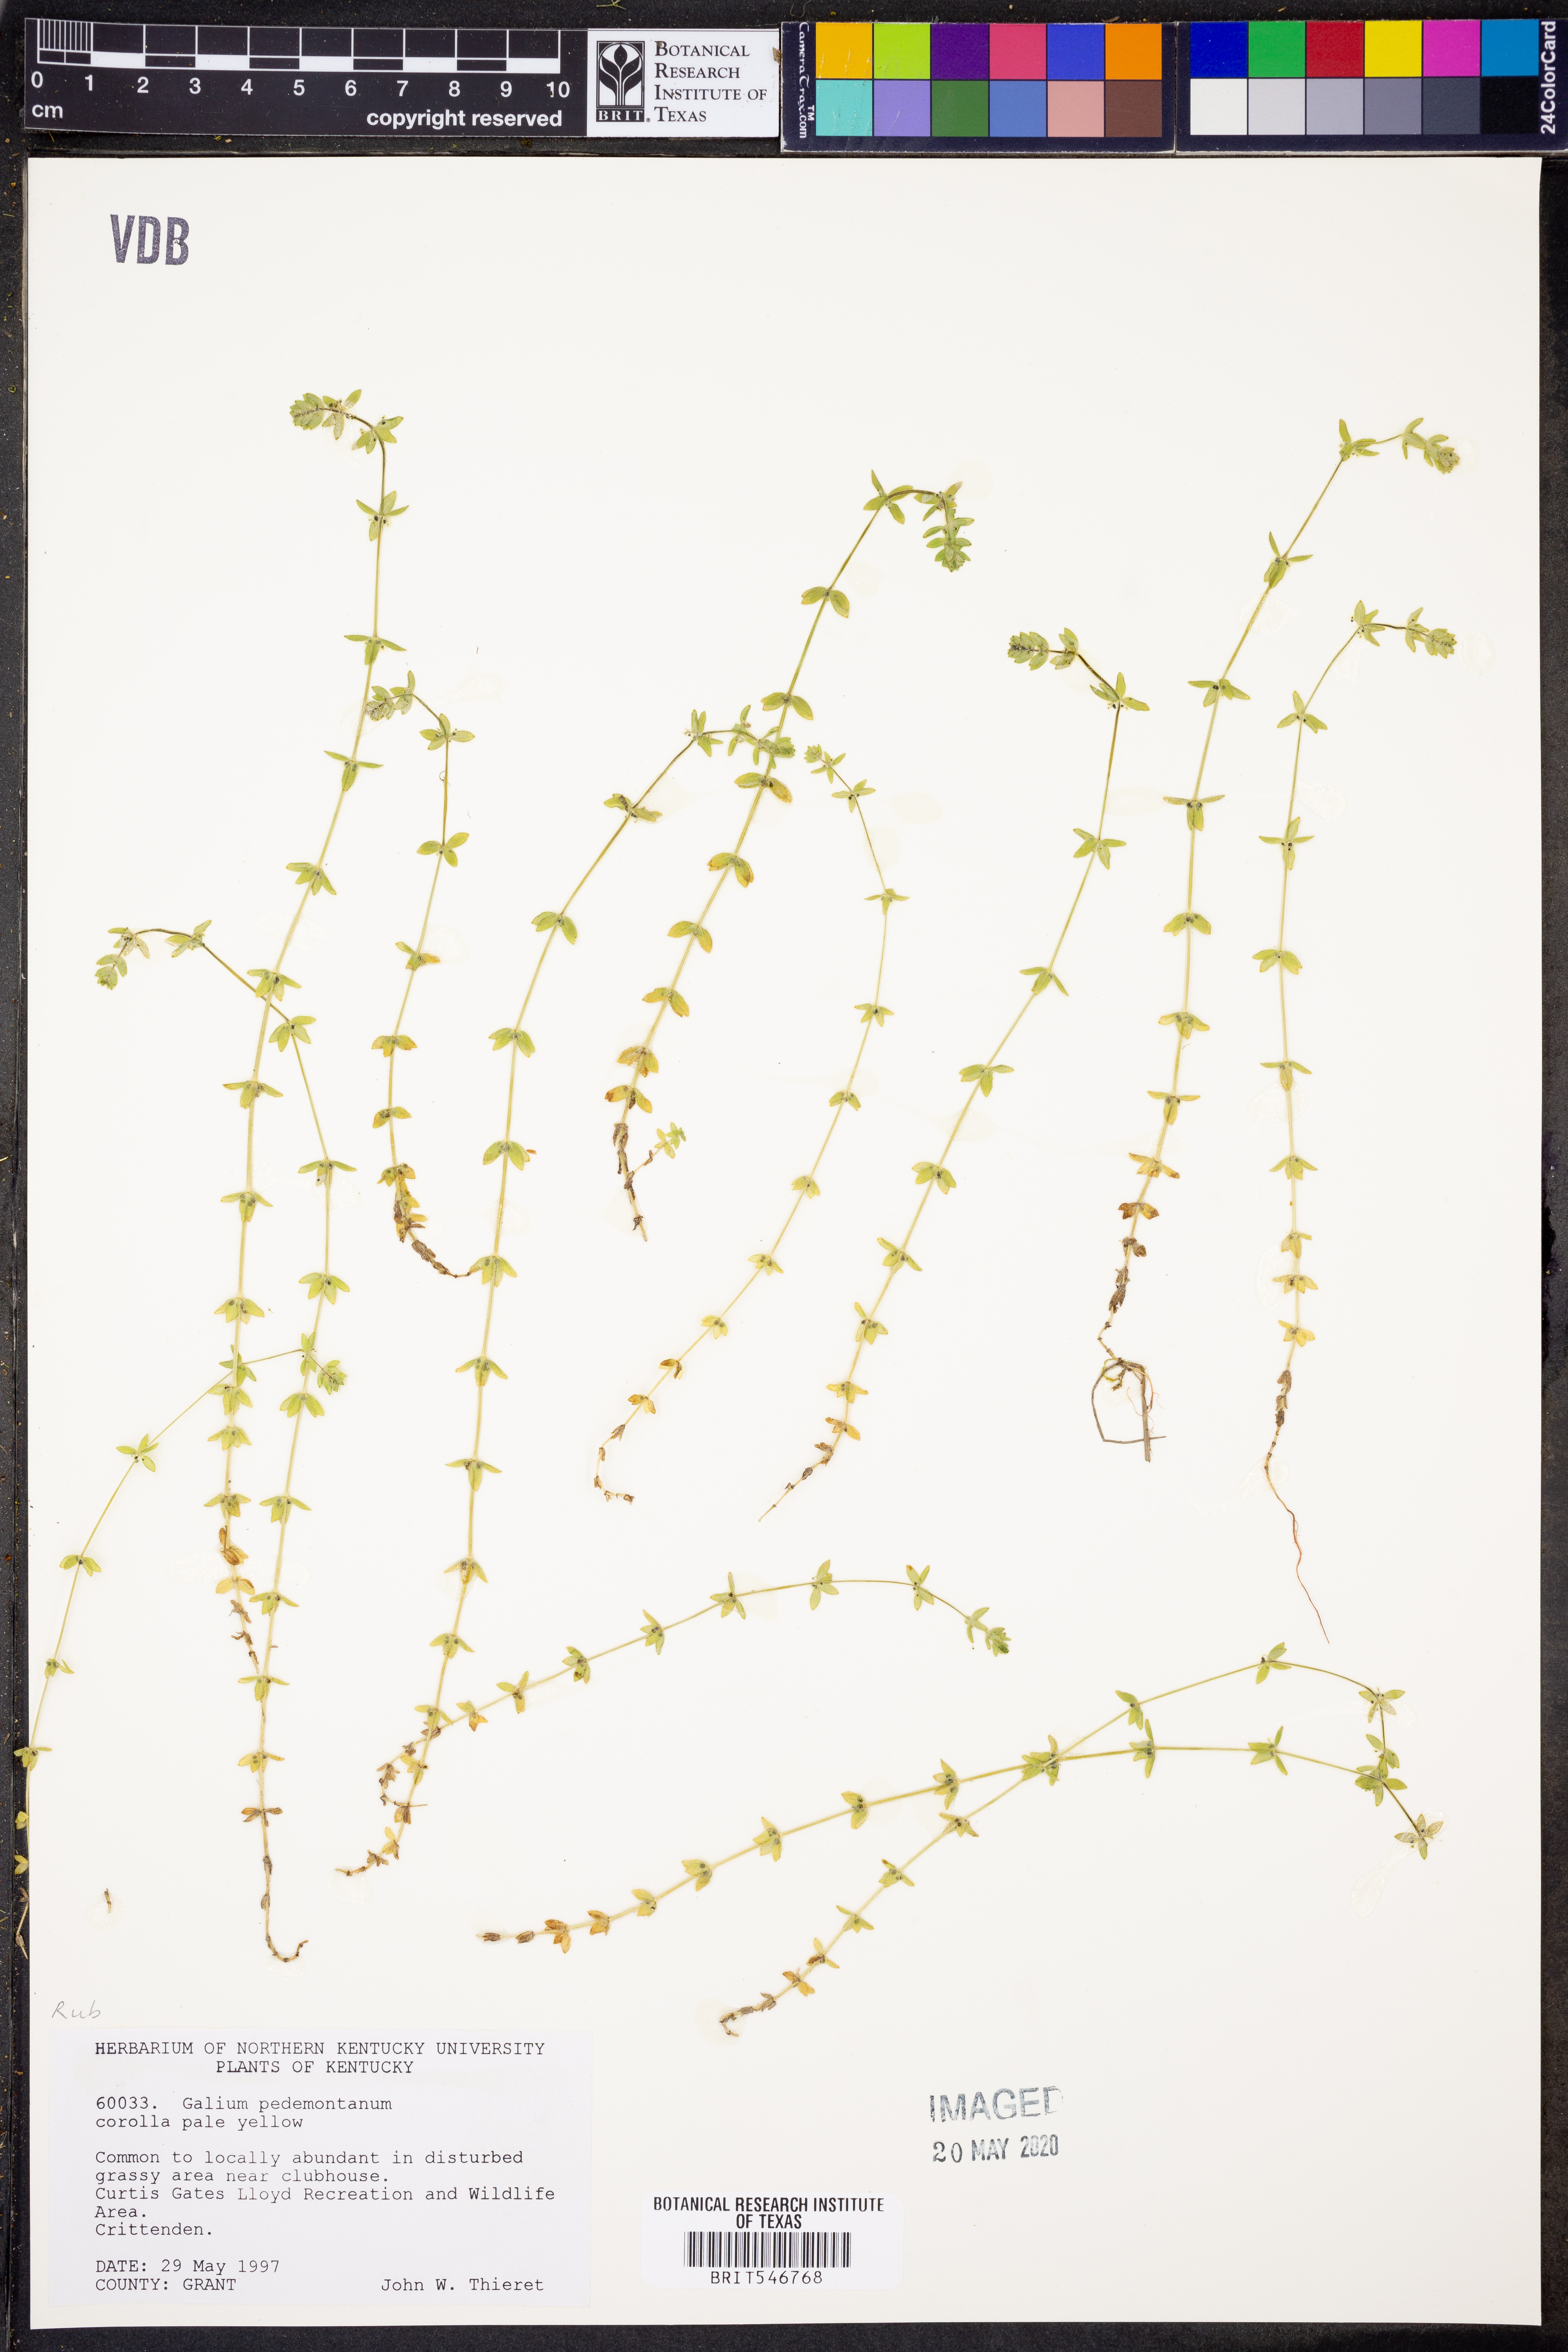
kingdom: Plantae
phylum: Tracheophyta
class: Magnoliopsida
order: Gentianales
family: Rubiaceae
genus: Cruciata
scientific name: Cruciata pedemontana
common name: Piedmont bedstraw
